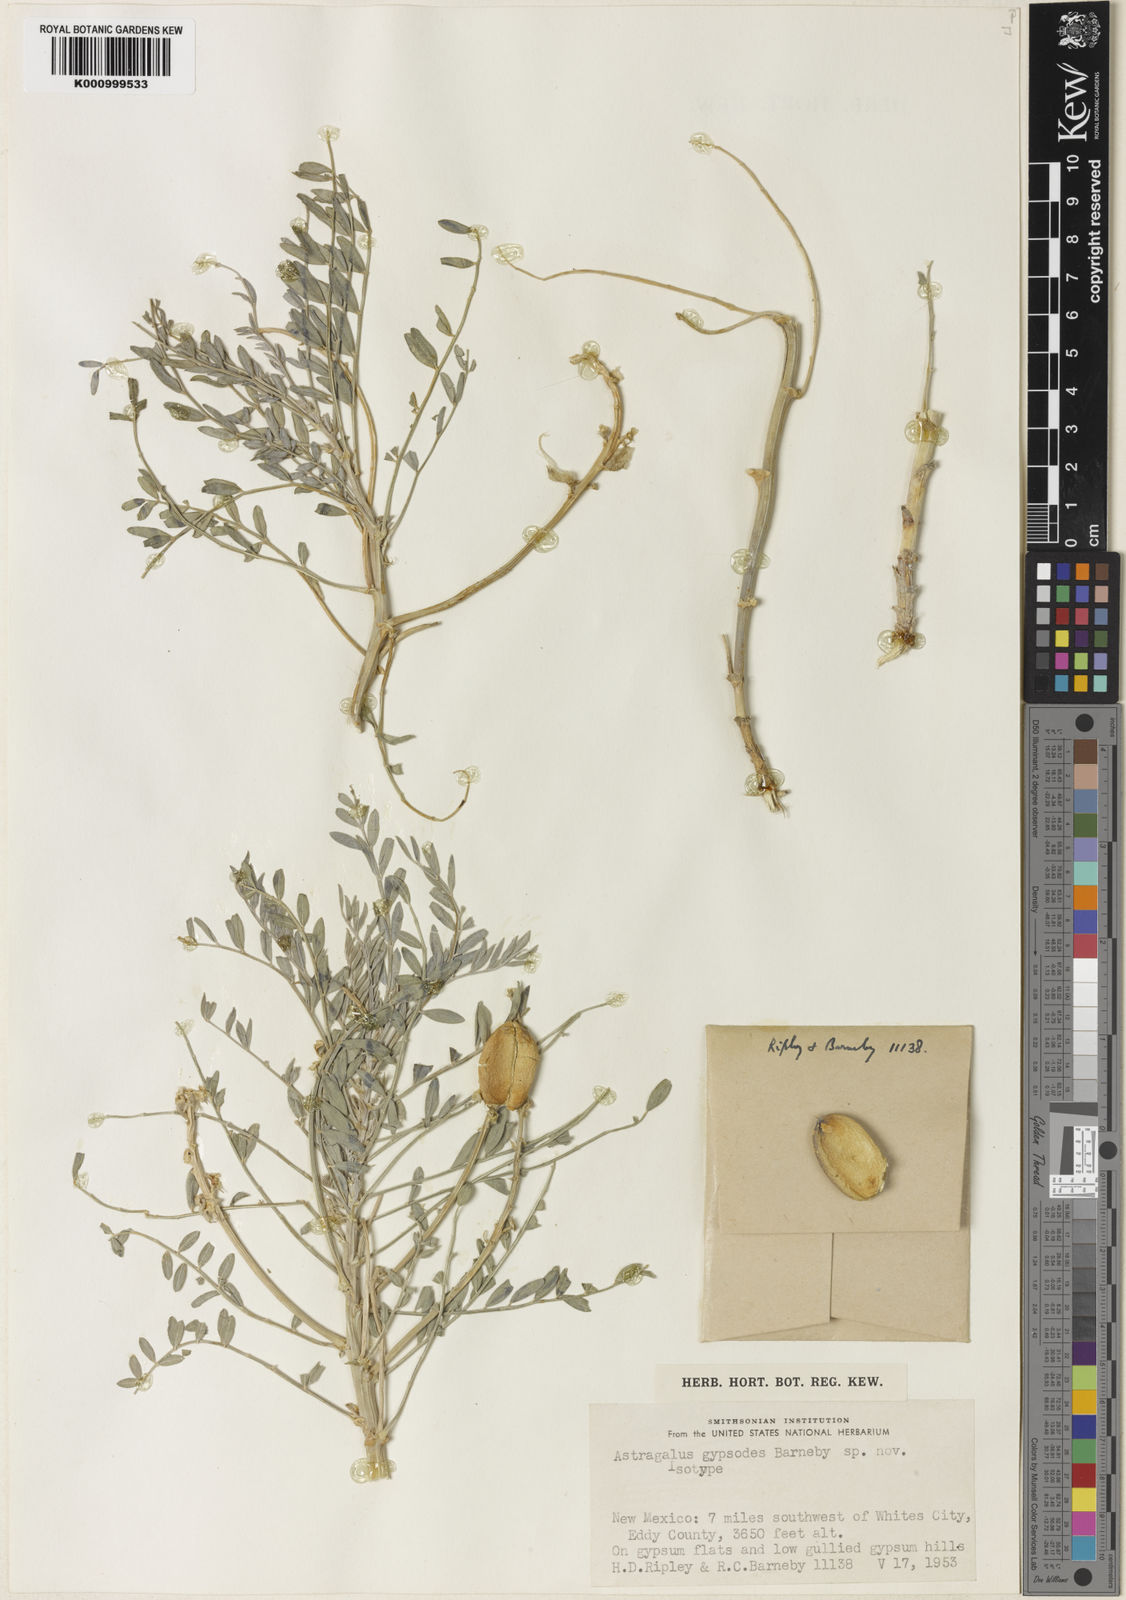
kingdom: Plantae
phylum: Tracheophyta
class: Magnoliopsida
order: Fabales
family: Fabaceae
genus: Astragalus
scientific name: Astragalus gypsodes
